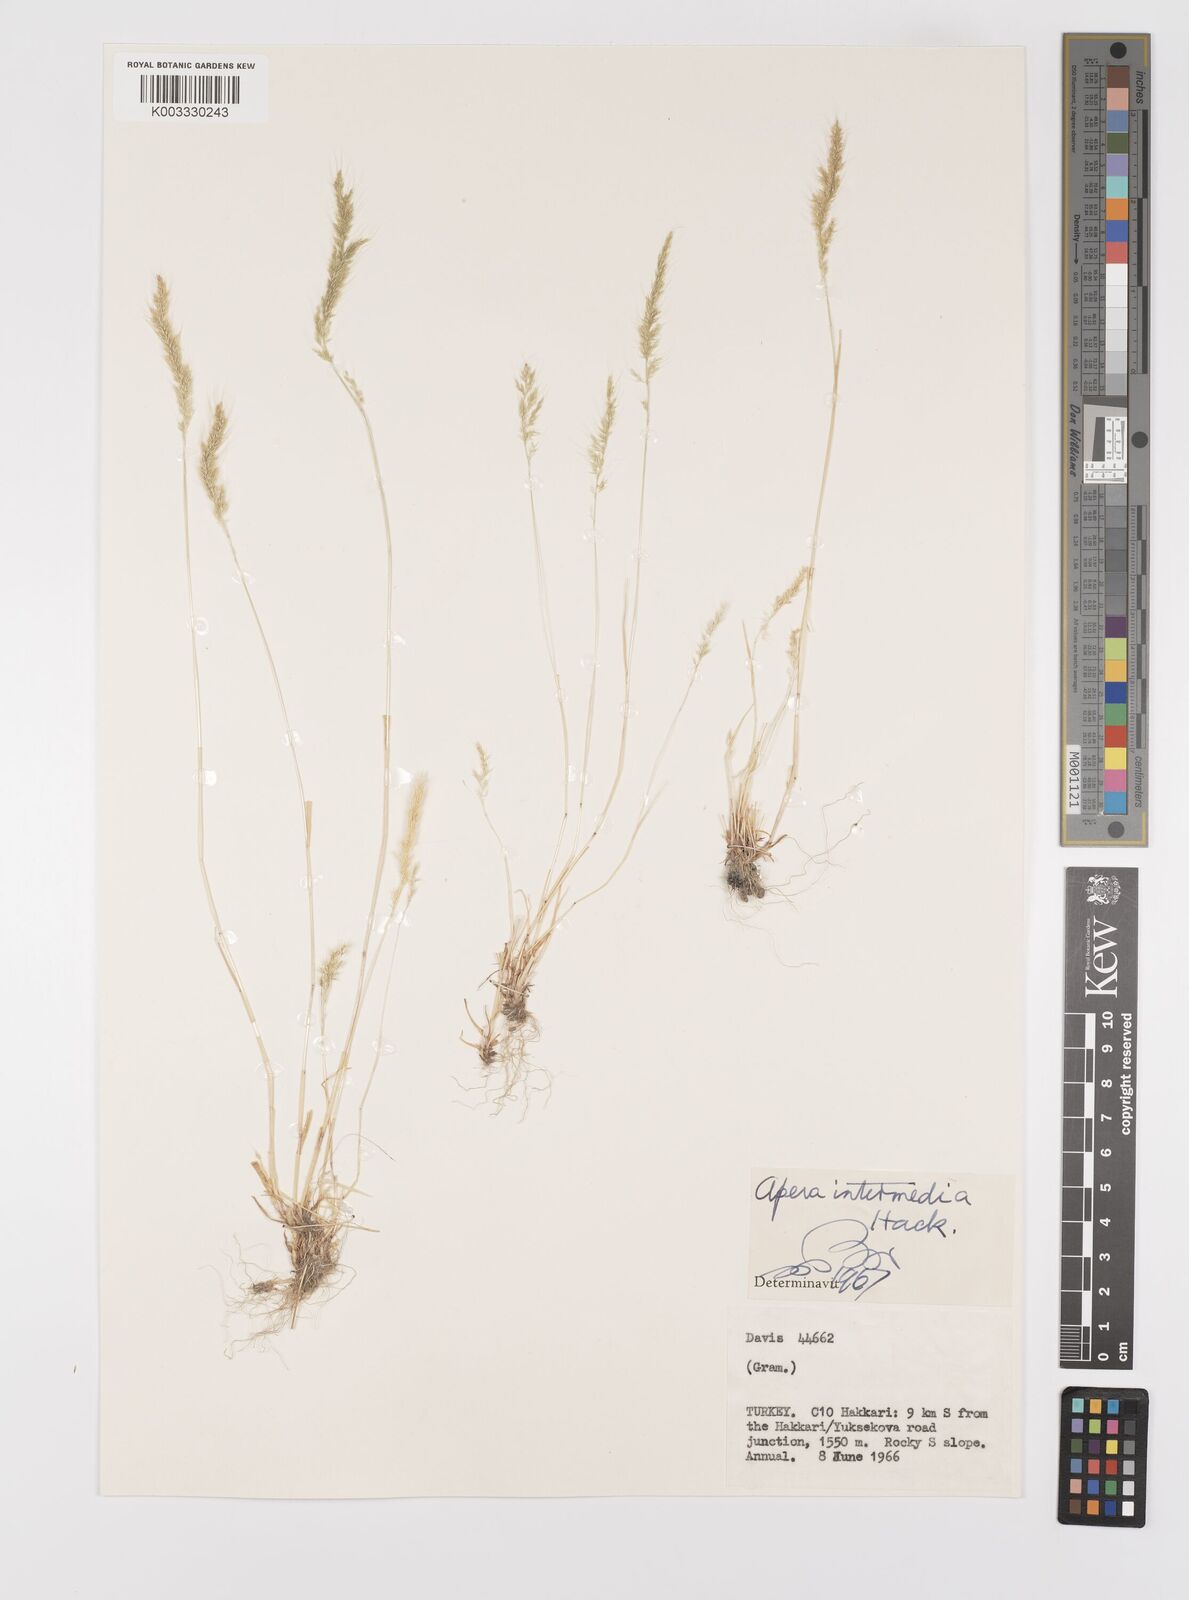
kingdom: Plantae
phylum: Tracheophyta
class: Liliopsida
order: Poales
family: Poaceae
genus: Apera
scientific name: Apera intermedia
